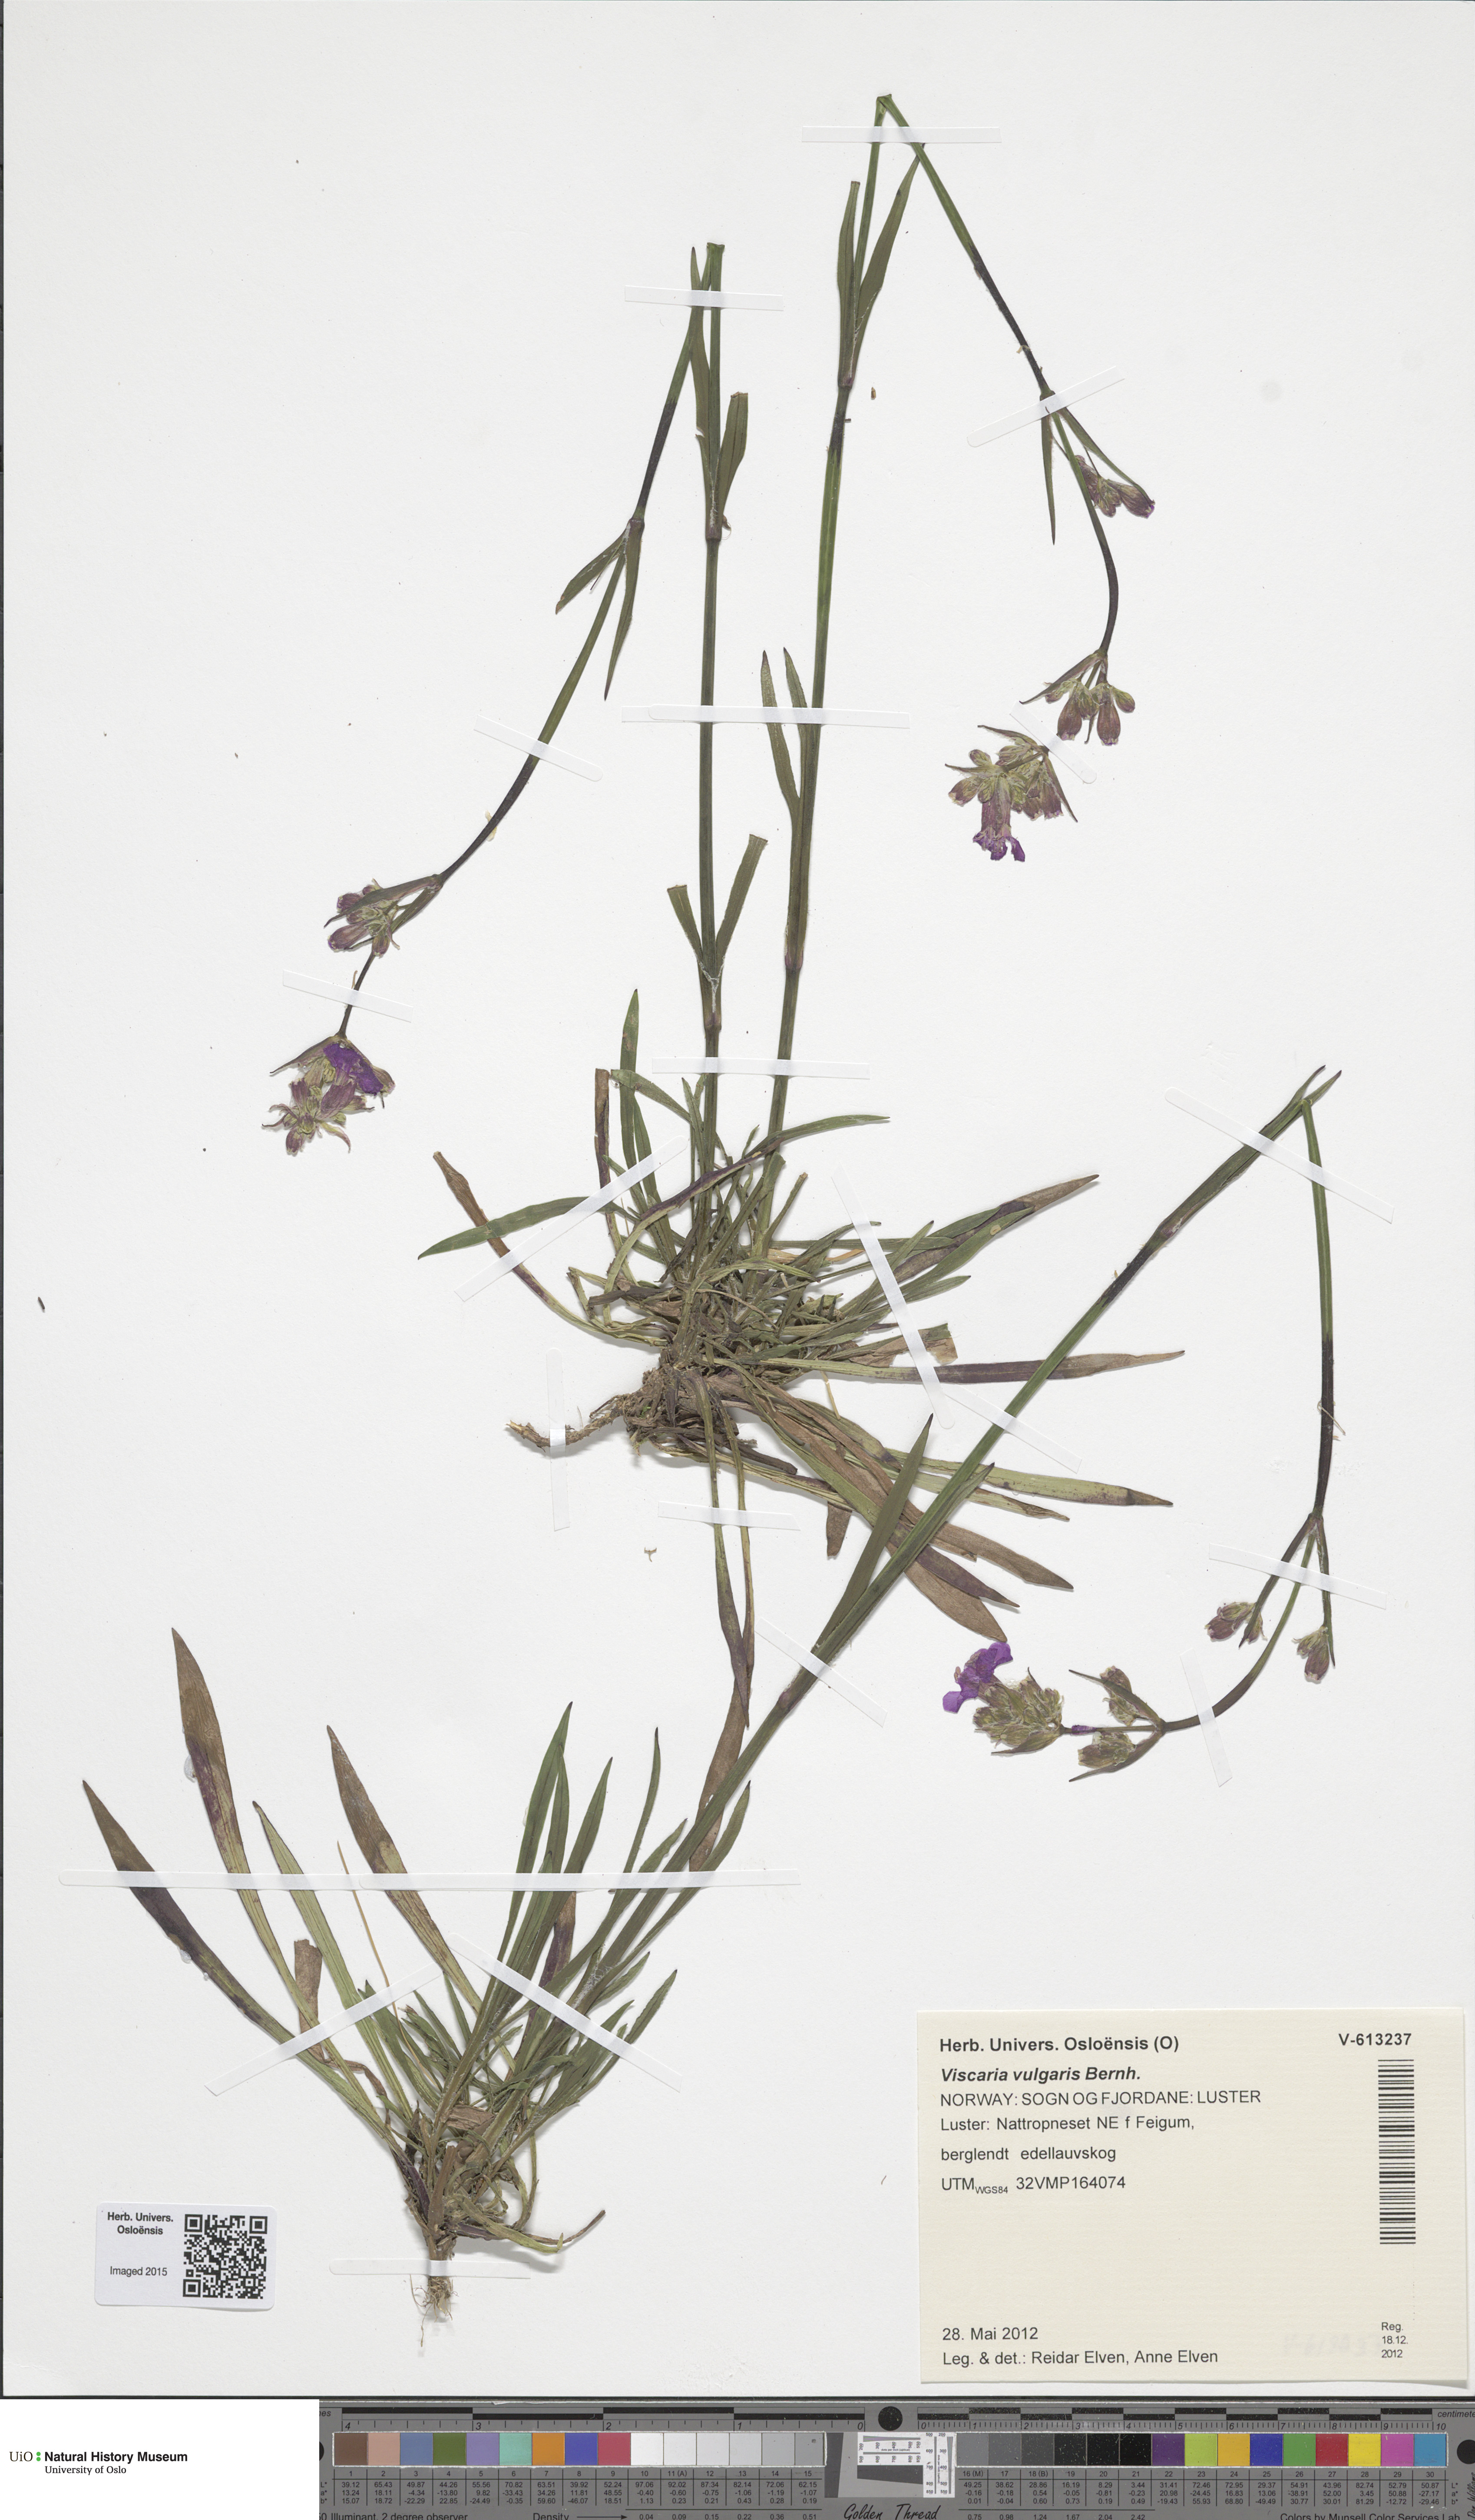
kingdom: Plantae
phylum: Tracheophyta
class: Magnoliopsida
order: Caryophyllales
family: Caryophyllaceae
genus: Viscaria
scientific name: Viscaria vulgaris
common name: Clammy campion
